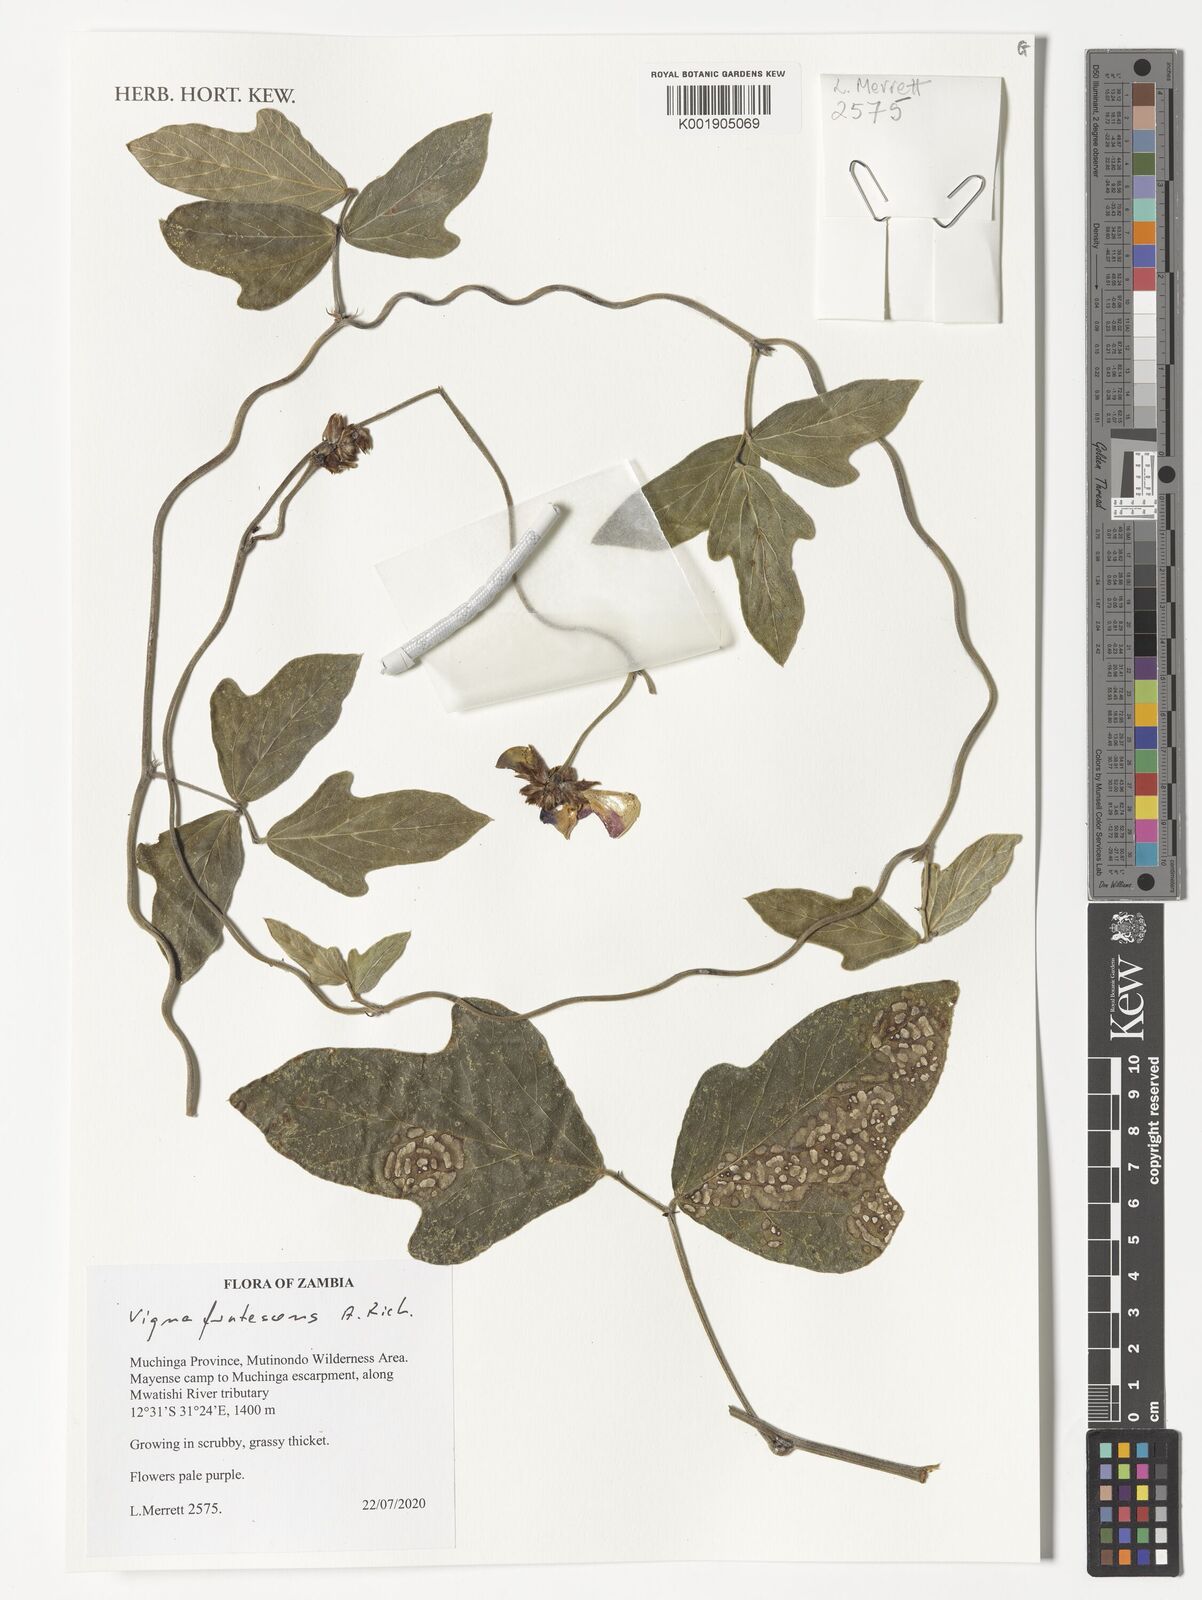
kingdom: Plantae
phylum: Tracheophyta
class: Magnoliopsida
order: Fabales
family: Fabaceae
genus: Vigna
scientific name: Vigna frutescens
